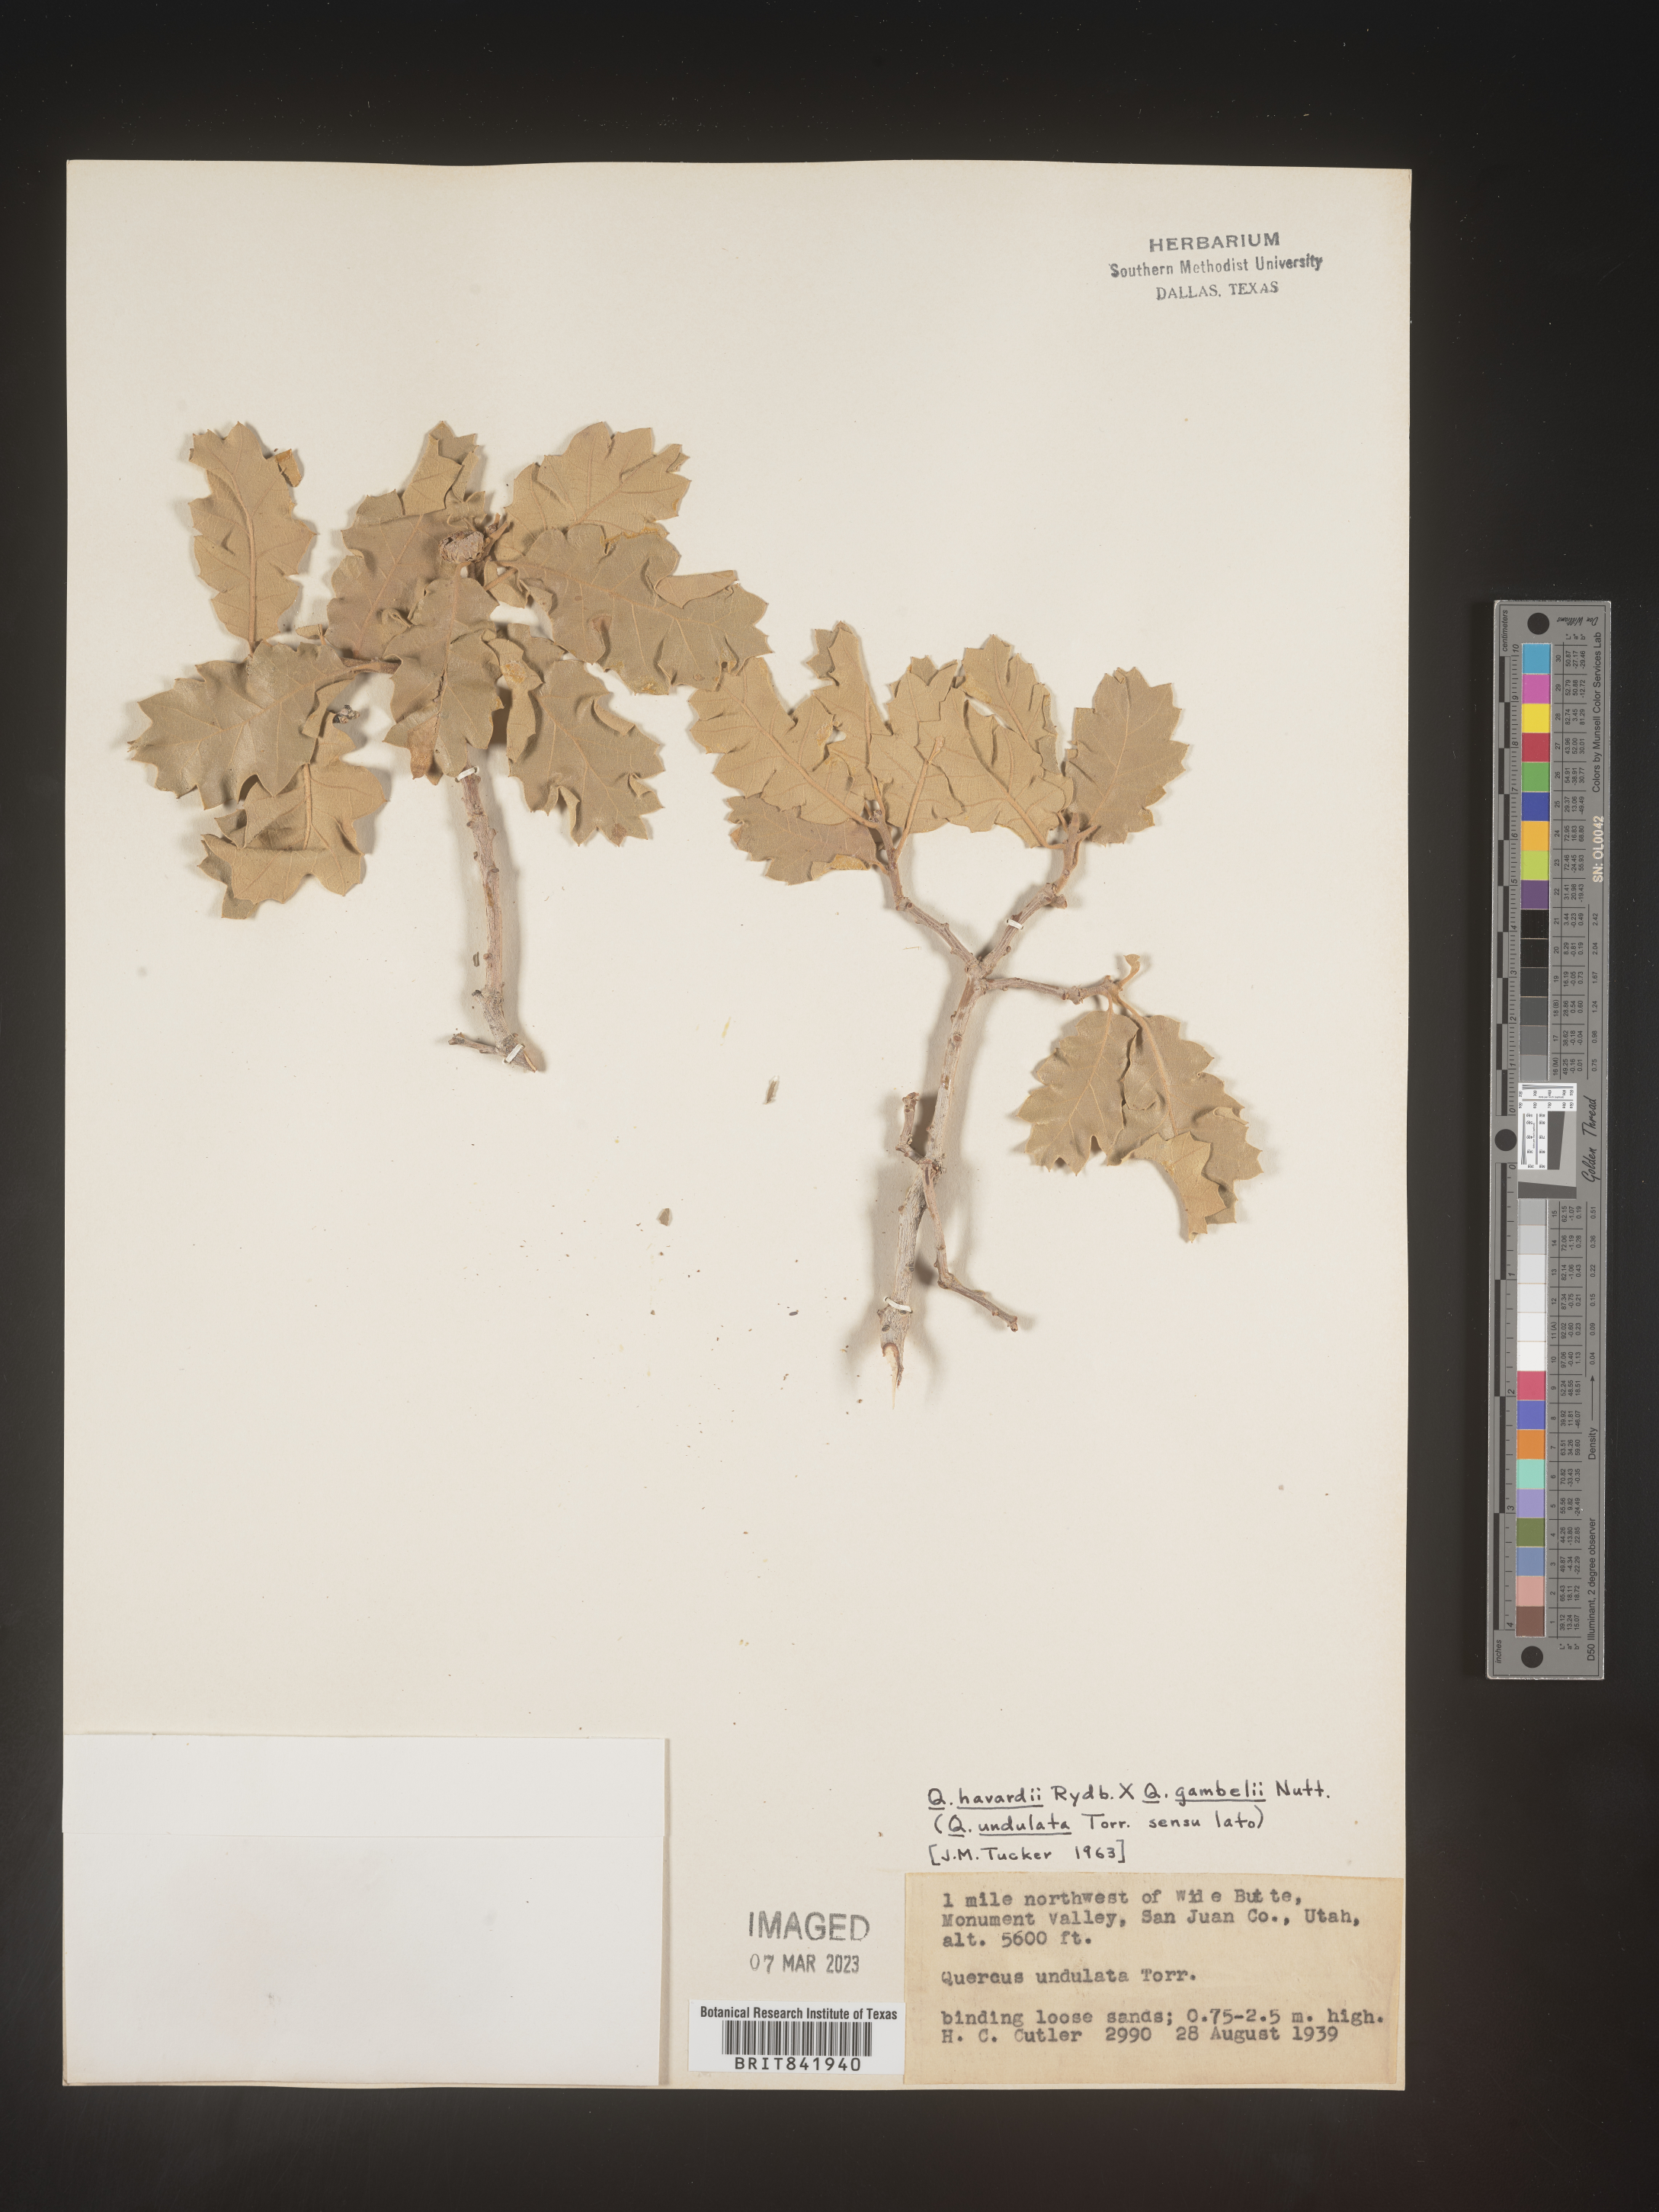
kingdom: Plantae
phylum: Tracheophyta
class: Magnoliopsida
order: Fagales
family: Fagaceae
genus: Quercus
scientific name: Quercus undulata
